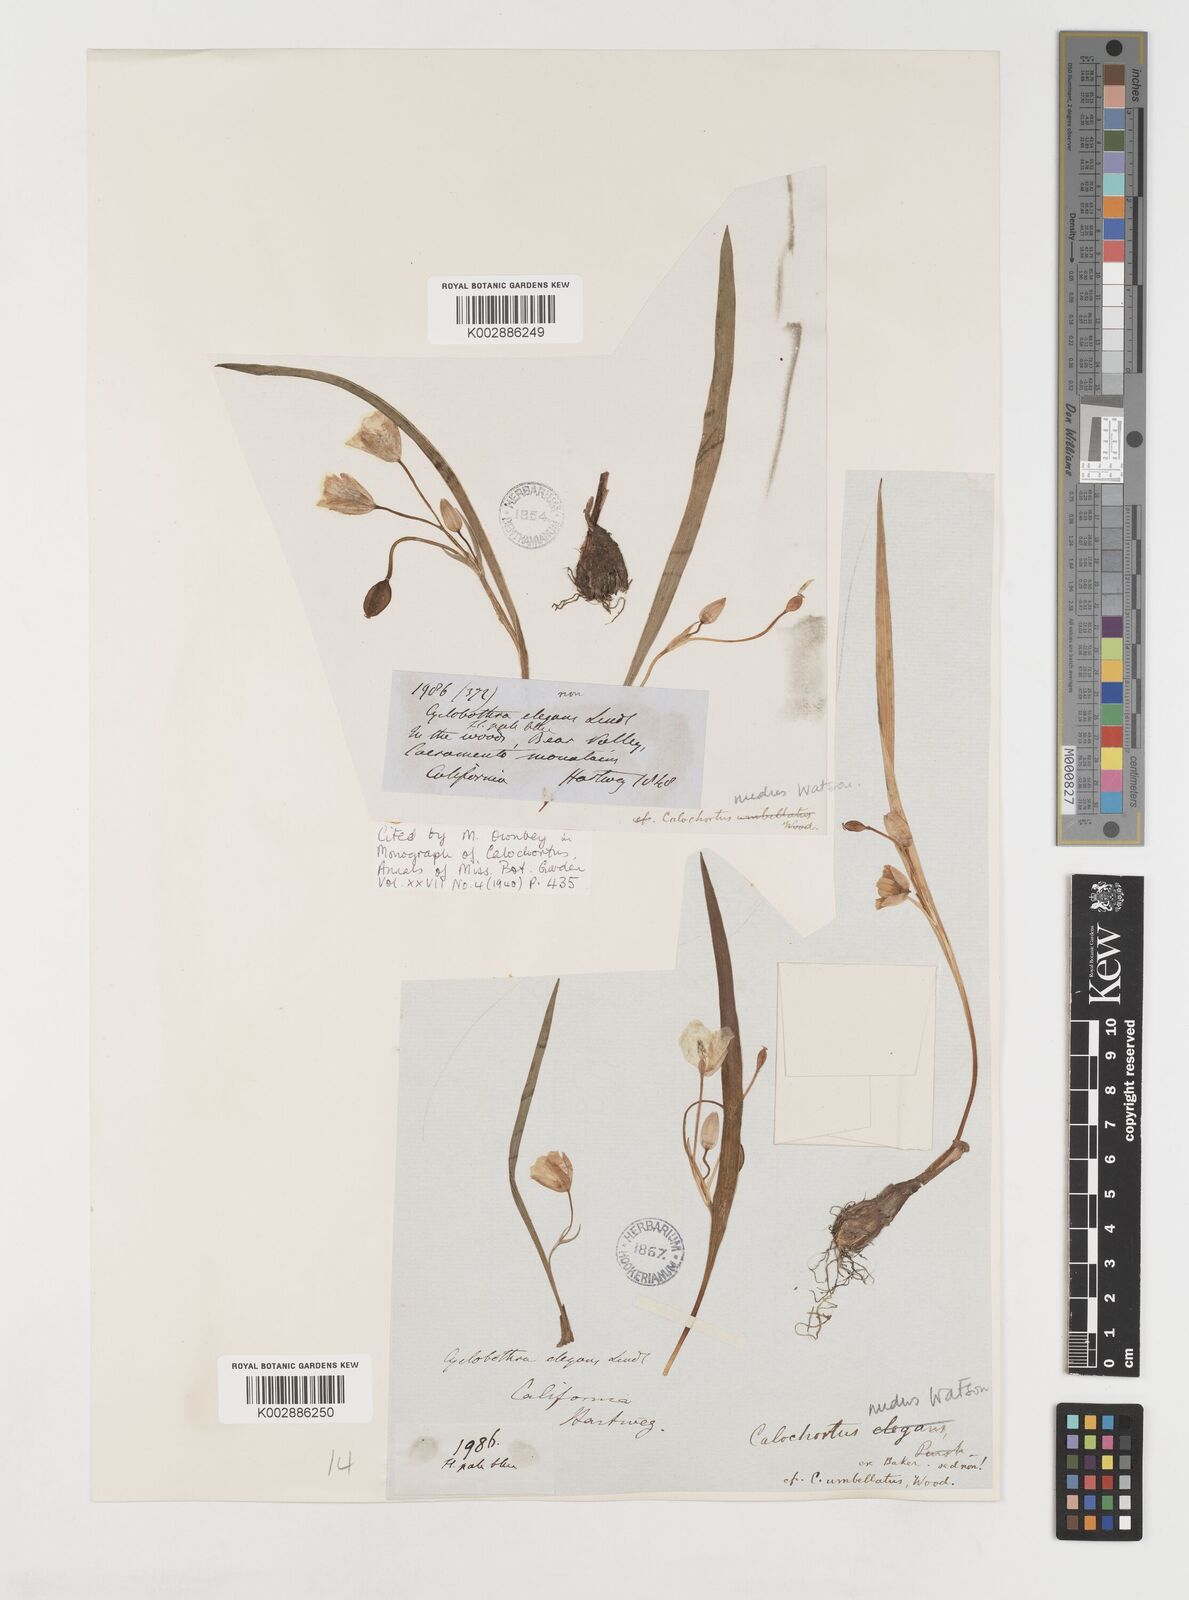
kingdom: Plantae
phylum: Tracheophyta
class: Liliopsida
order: Liliales
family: Liliaceae
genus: Calochortus
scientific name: Calochortus nudus
